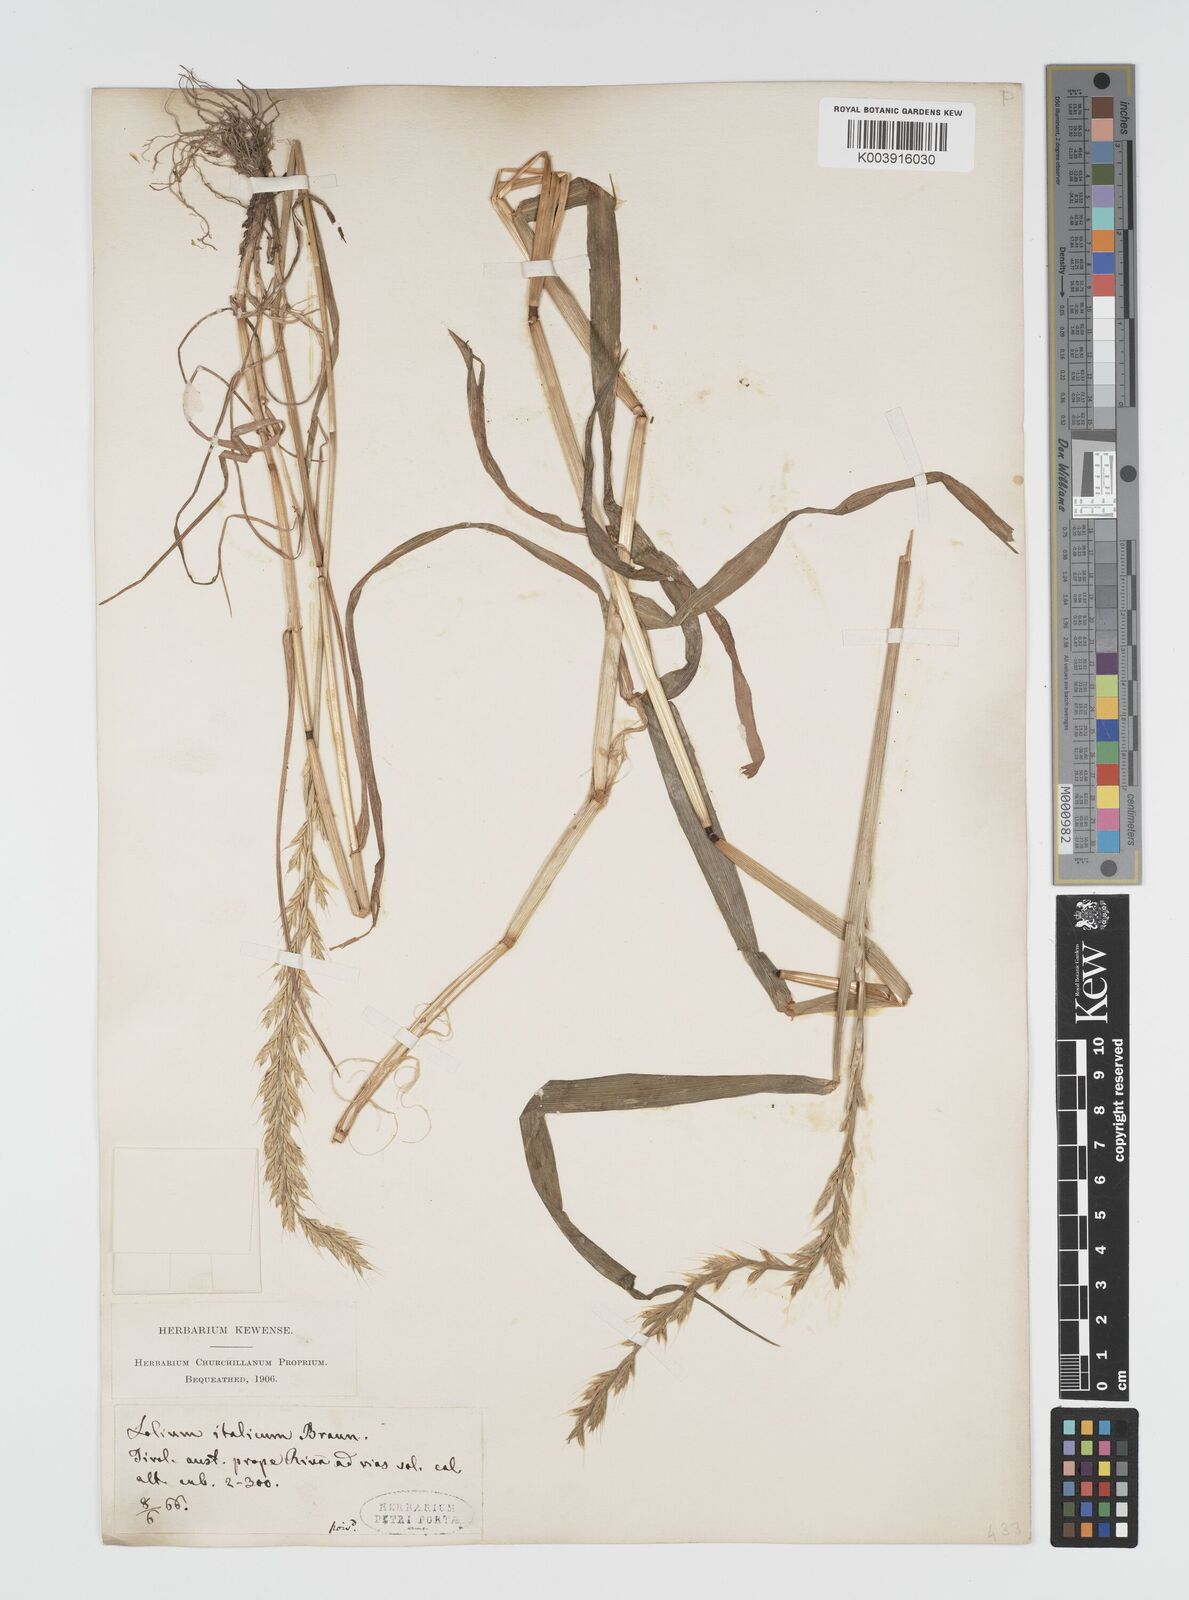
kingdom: Plantae
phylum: Tracheophyta
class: Liliopsida
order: Poales
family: Poaceae
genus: Lolium
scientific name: Lolium multiflorum
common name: Annual ryegrass
